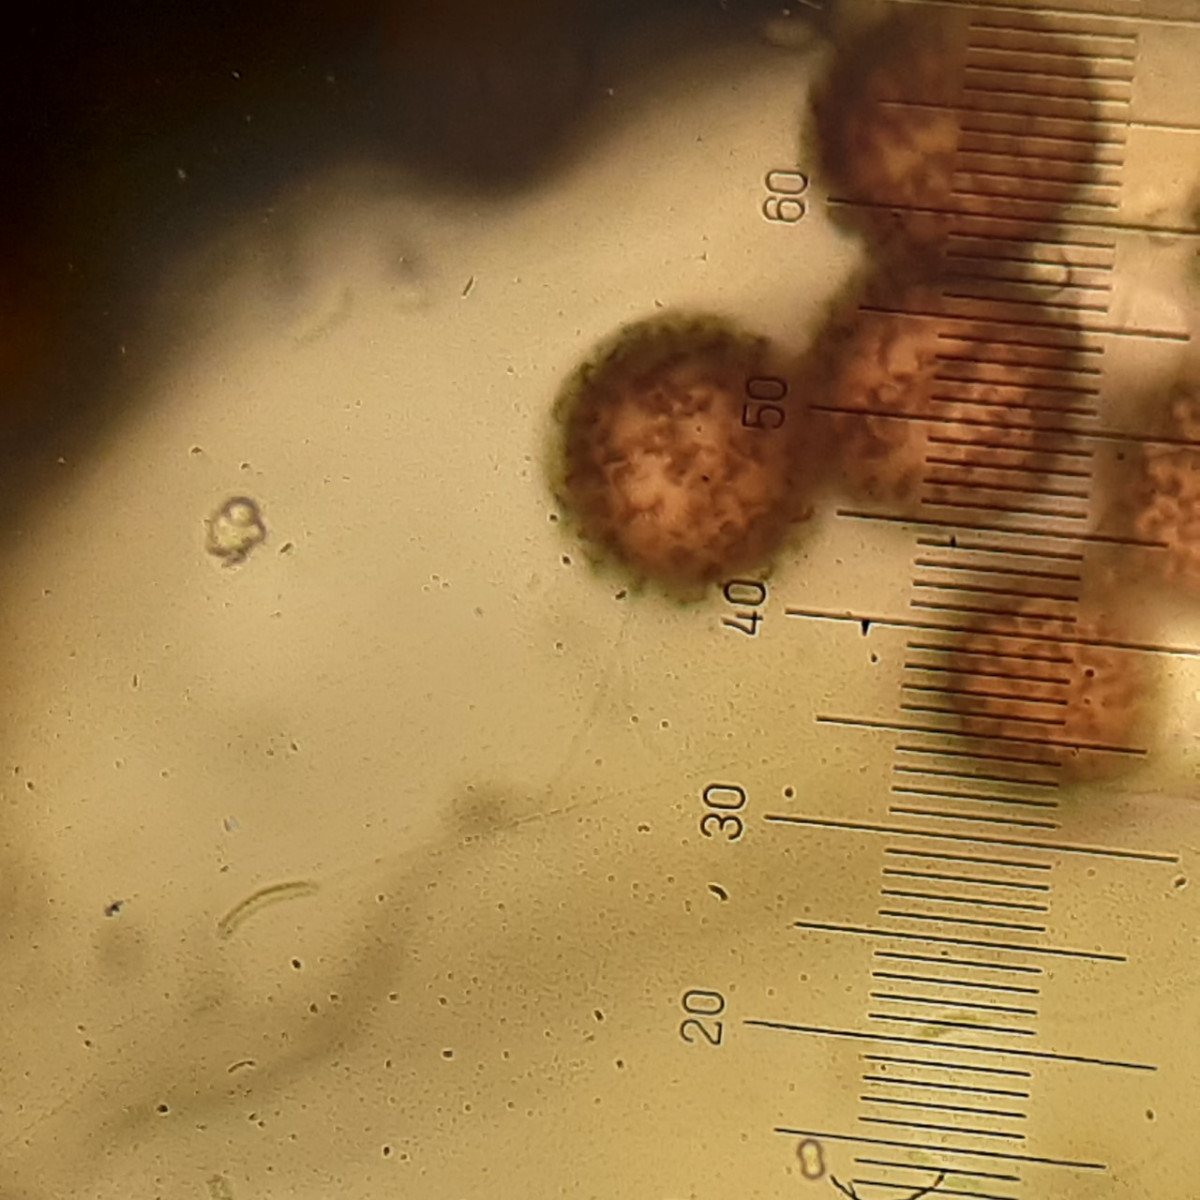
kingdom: Protozoa
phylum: Mycetozoa
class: Myxomycetes
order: Physarales
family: Physaraceae
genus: Badhamia
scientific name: Badhamia lilacina
